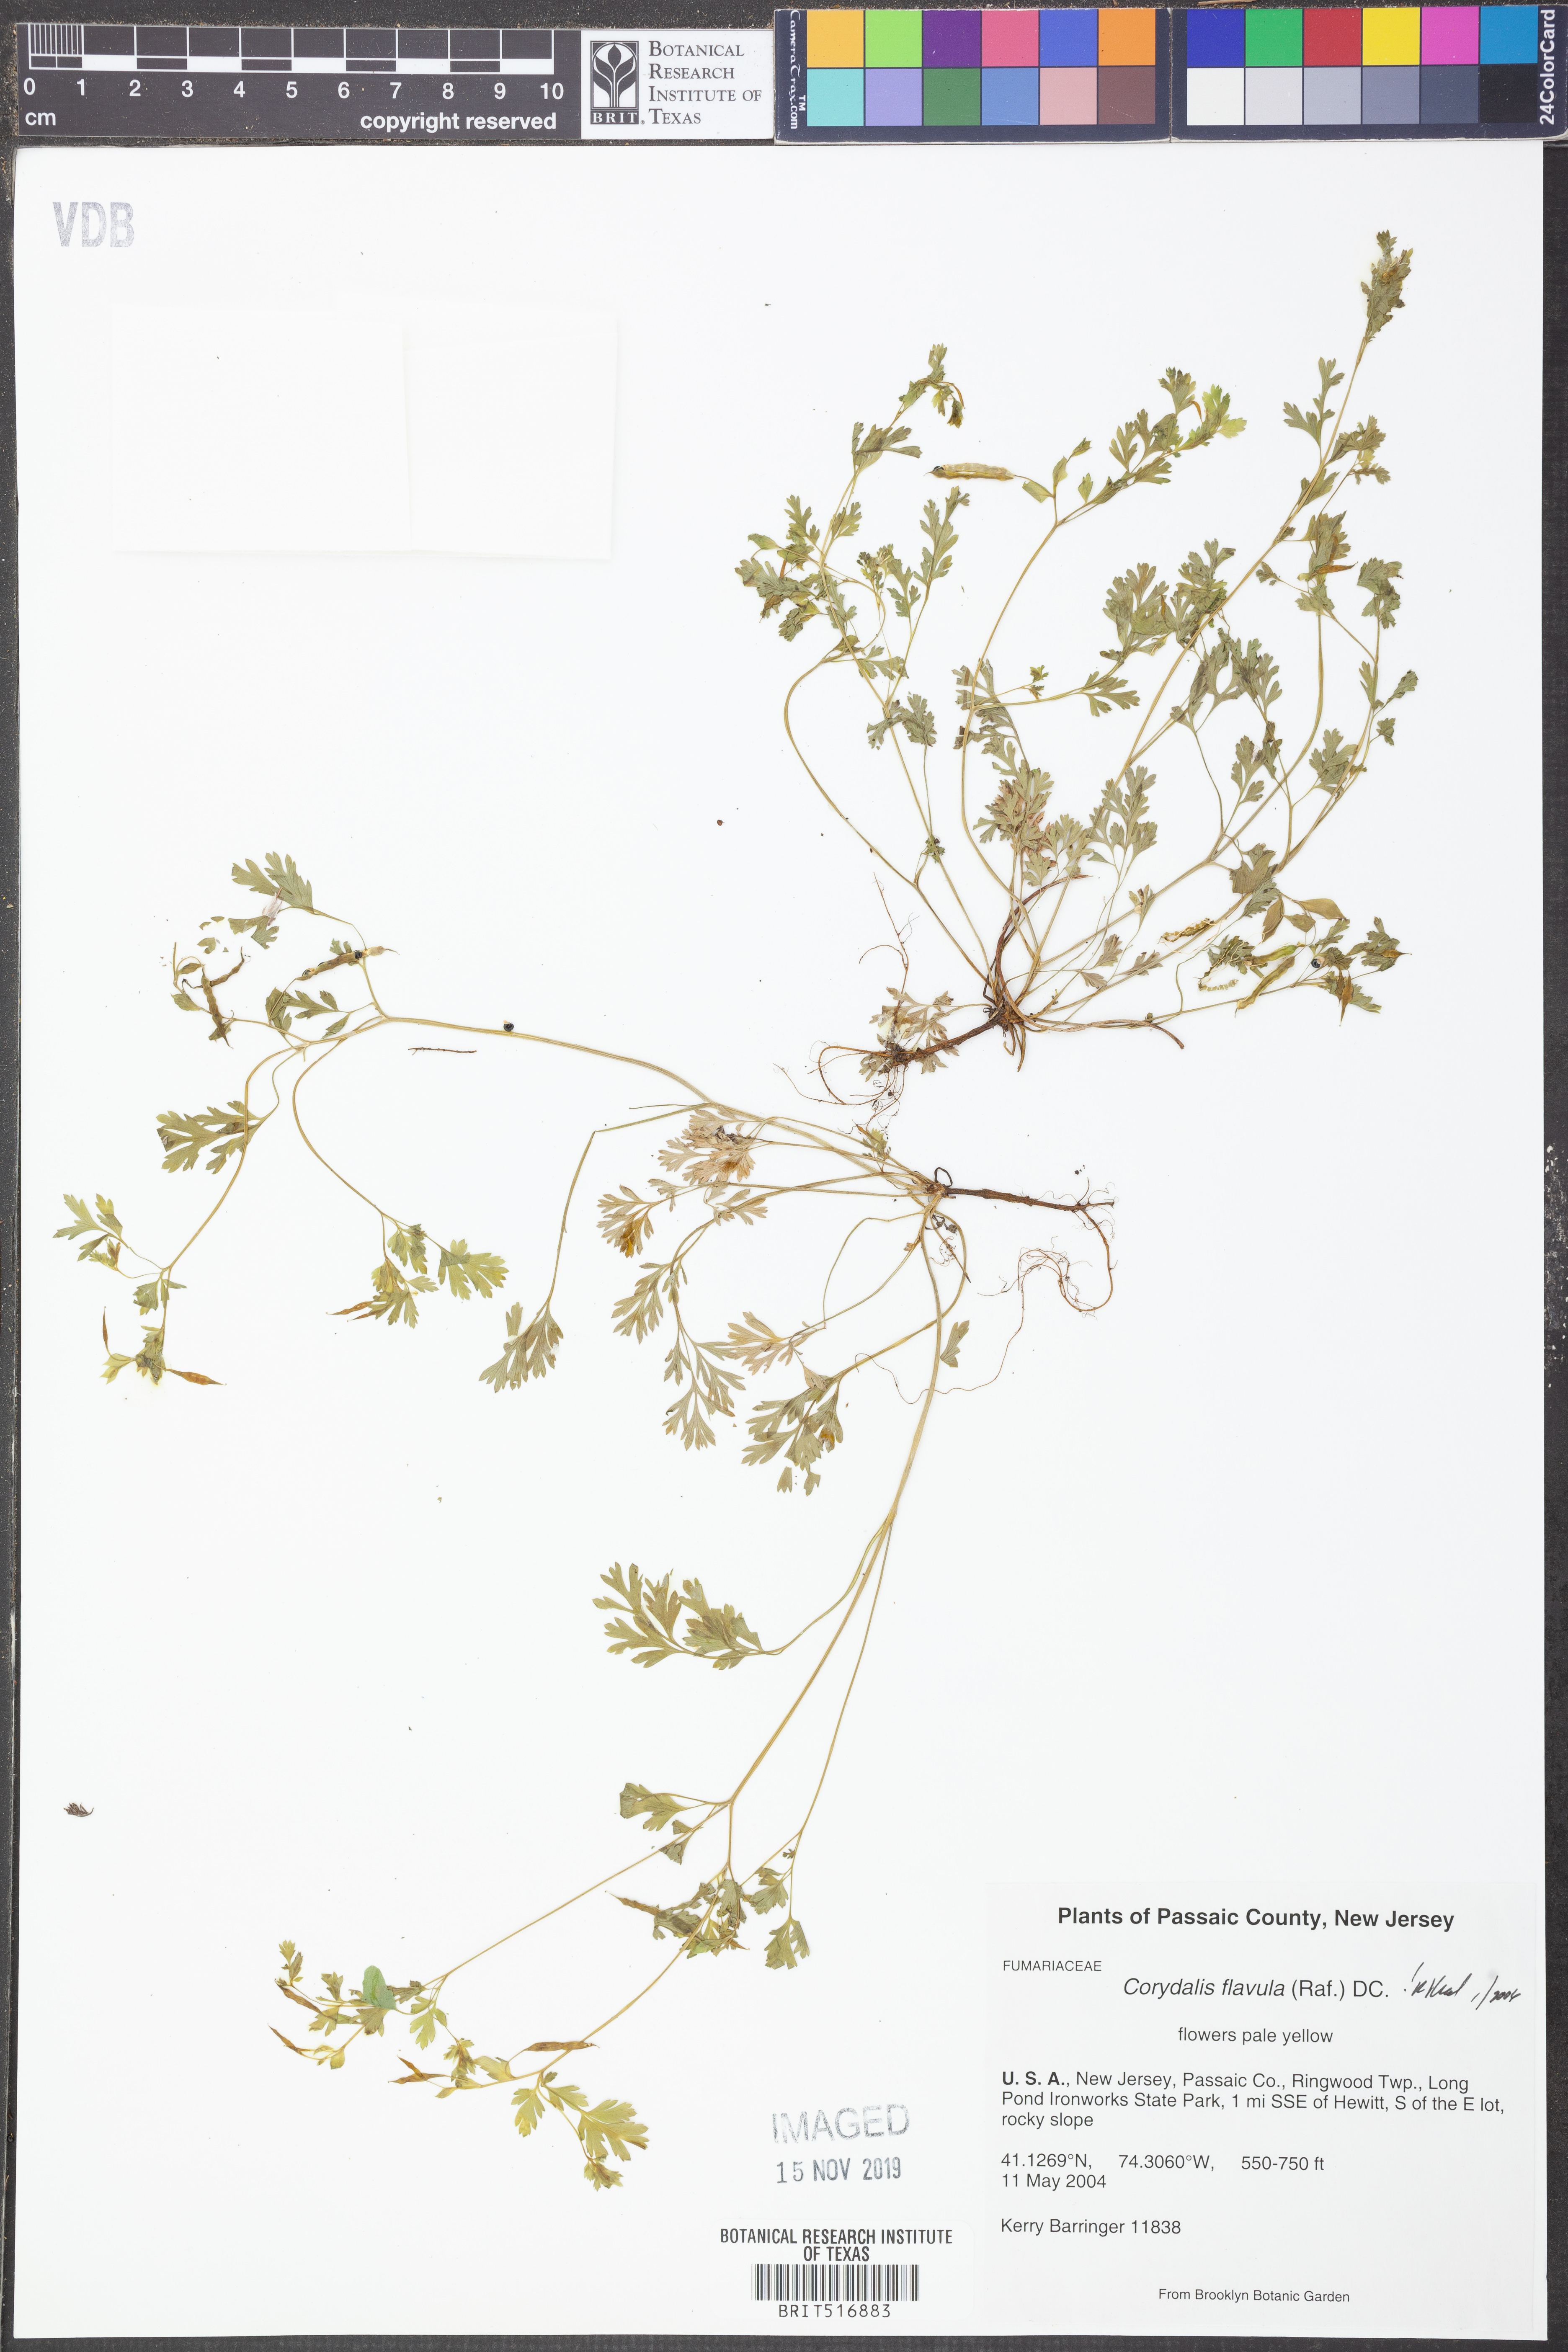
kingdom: Plantae
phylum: Tracheophyta
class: Magnoliopsida
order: Ranunculales
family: Papaveraceae
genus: Corydalis
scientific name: Corydalis flavula
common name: Yellow corydalis
